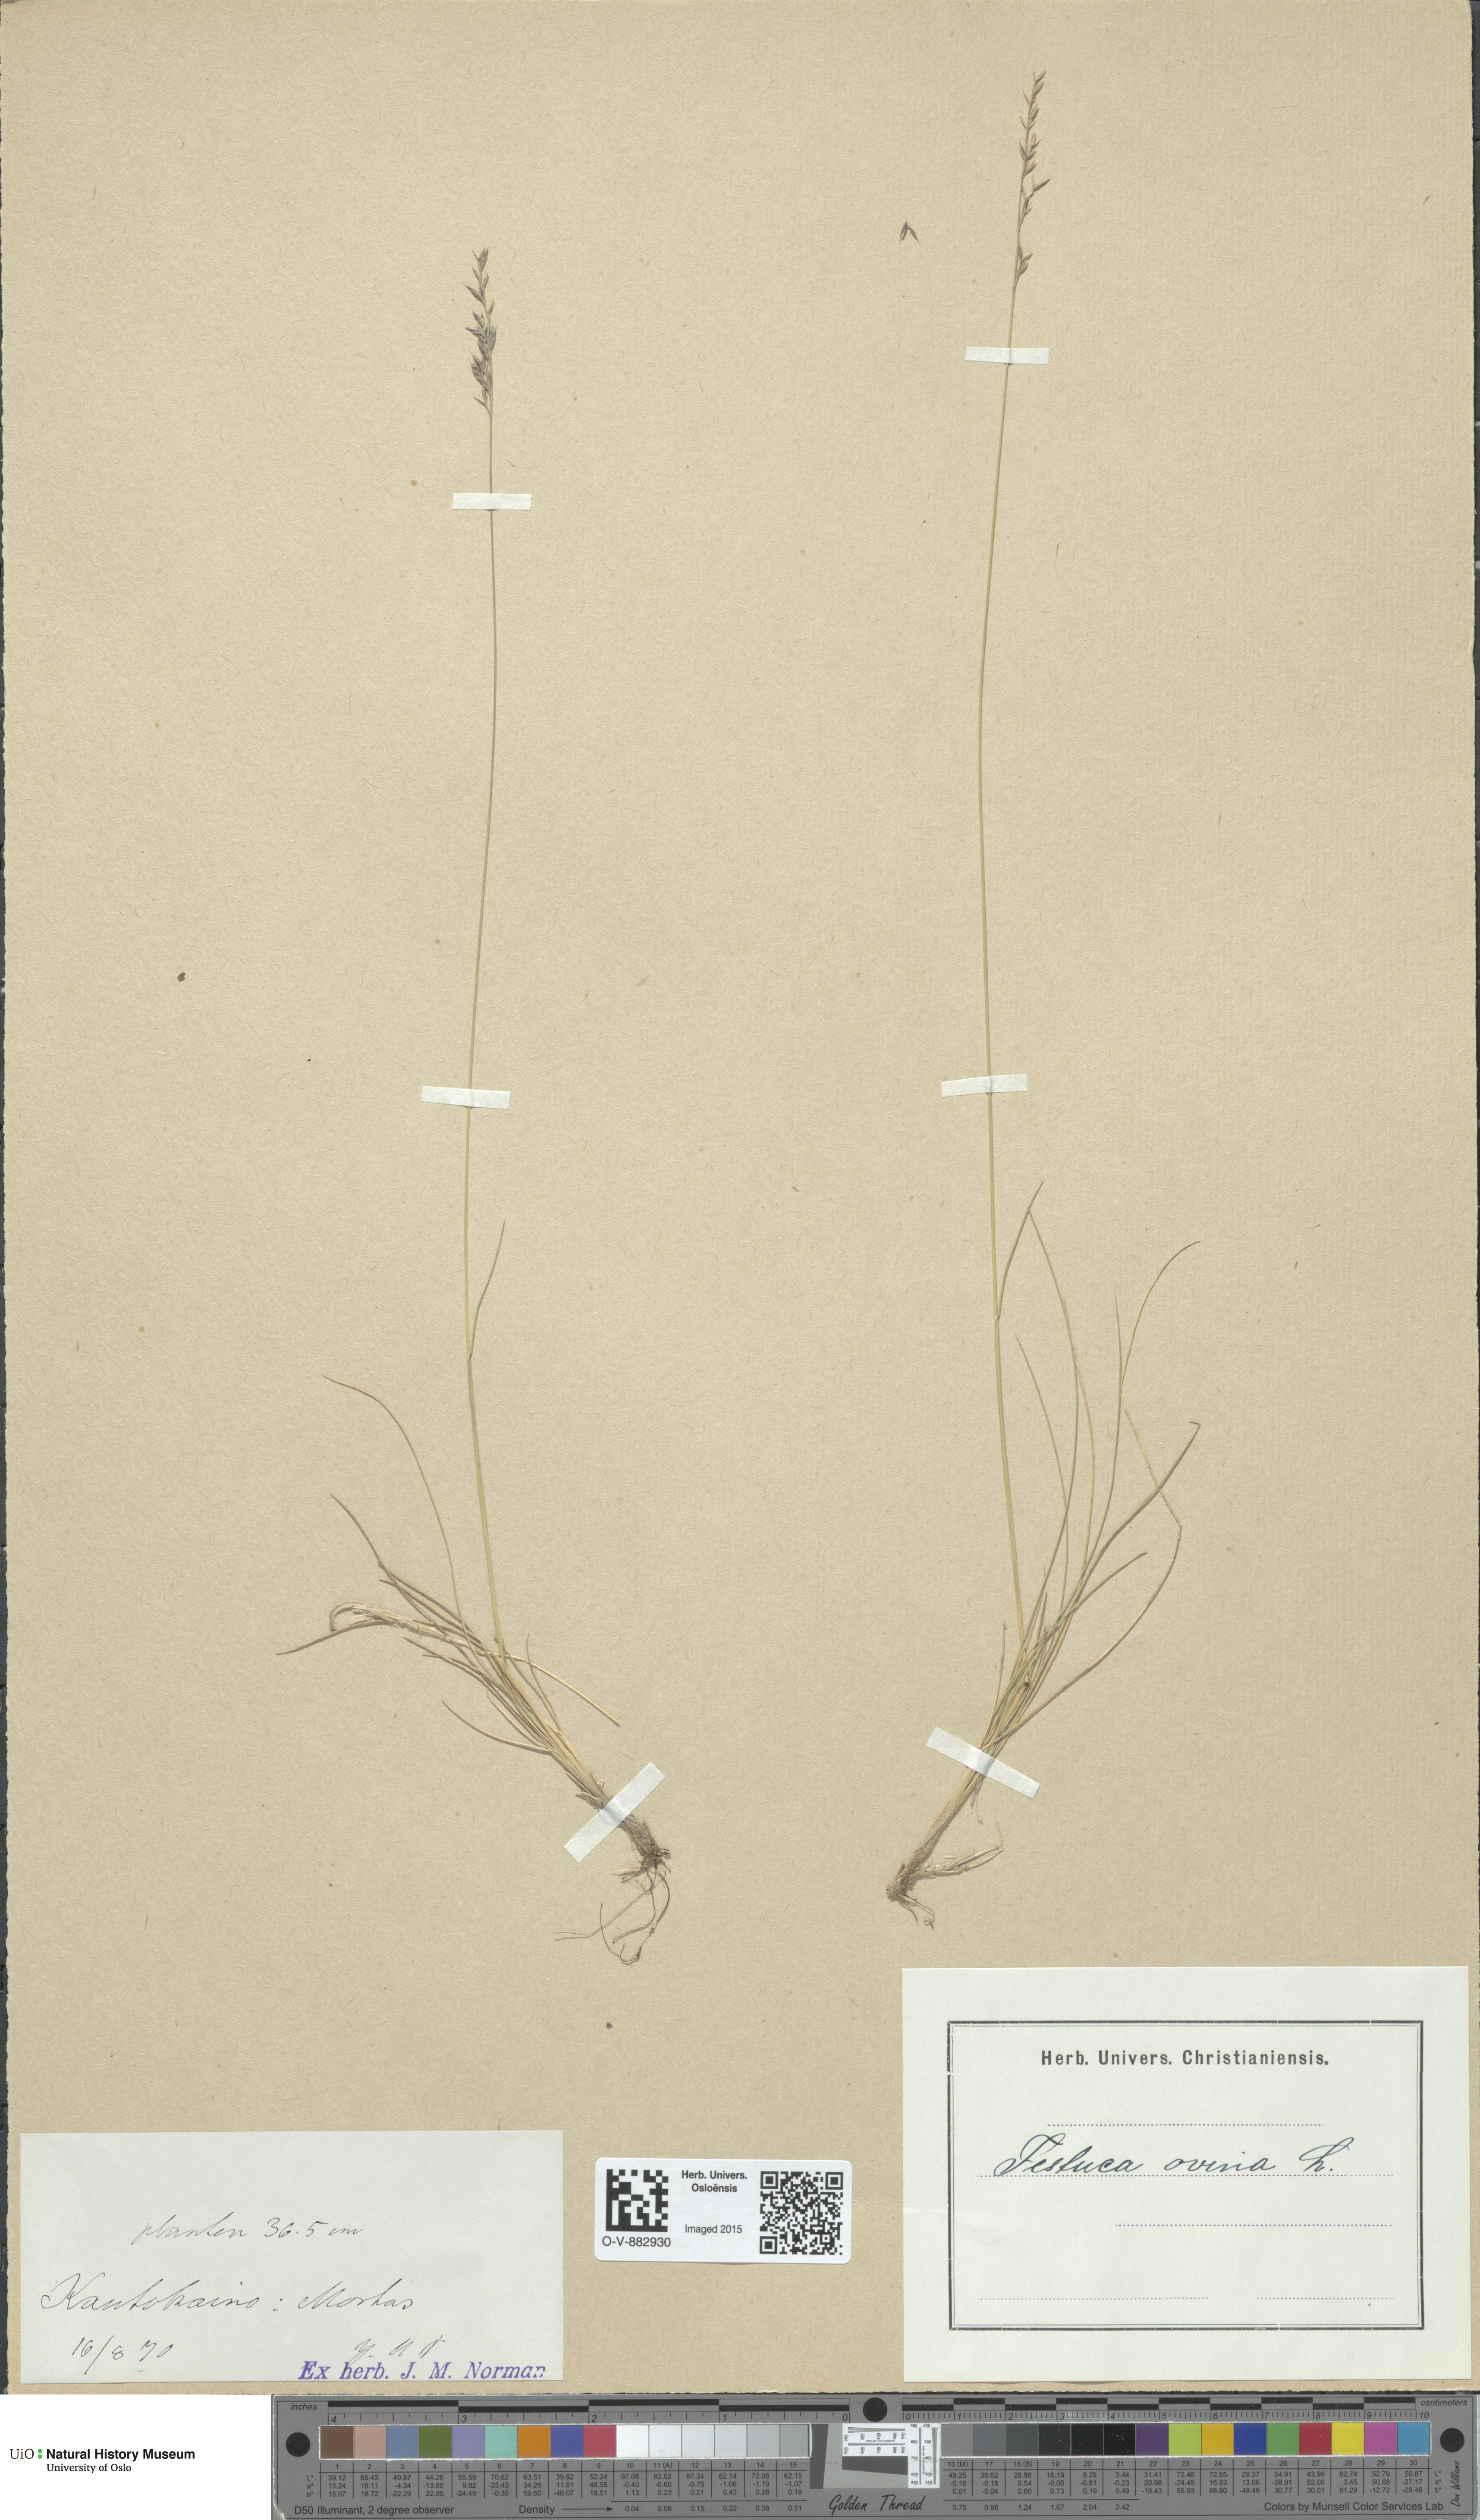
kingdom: Plantae
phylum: Tracheophyta
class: Liliopsida
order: Poales
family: Poaceae
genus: Festuca
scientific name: Festuca ovina
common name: Sheep fescue
